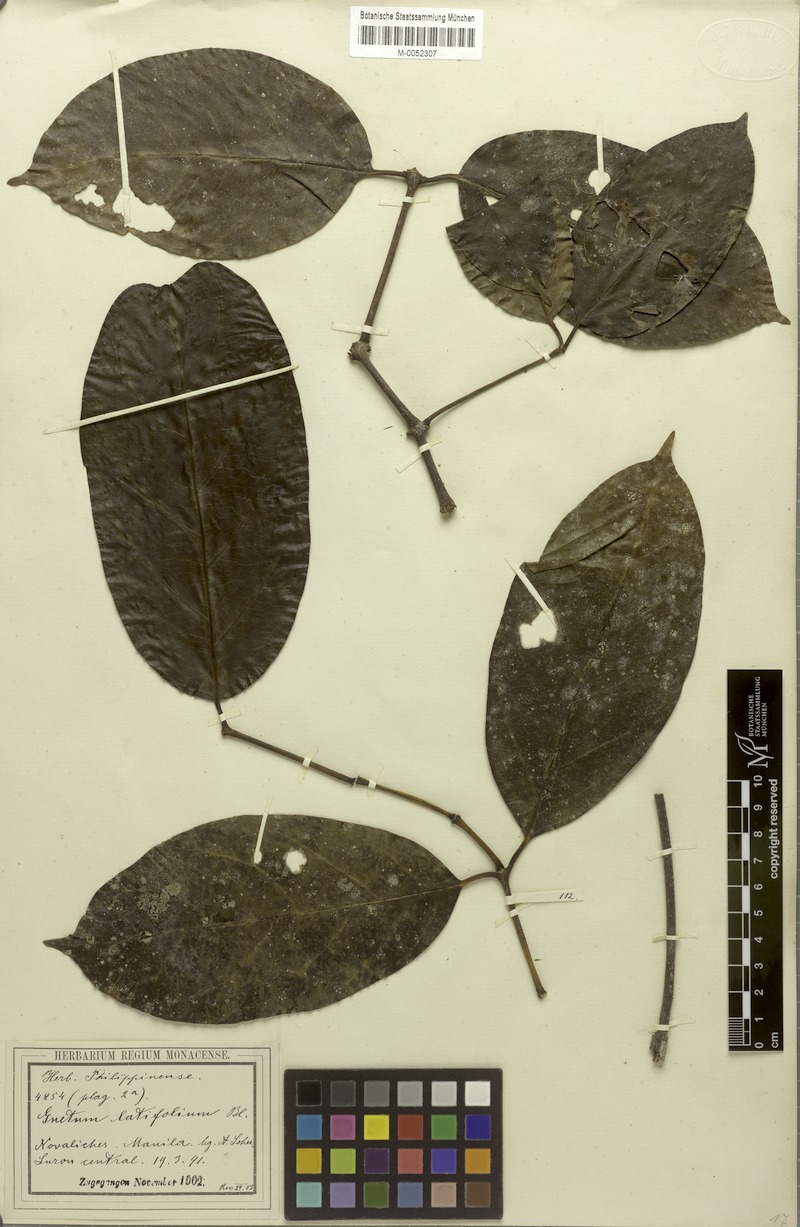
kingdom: Plantae
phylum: Tracheophyta
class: Gnetopsida
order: Gnetales
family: Gnetaceae
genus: Gnetum
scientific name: Gnetum latifolium
